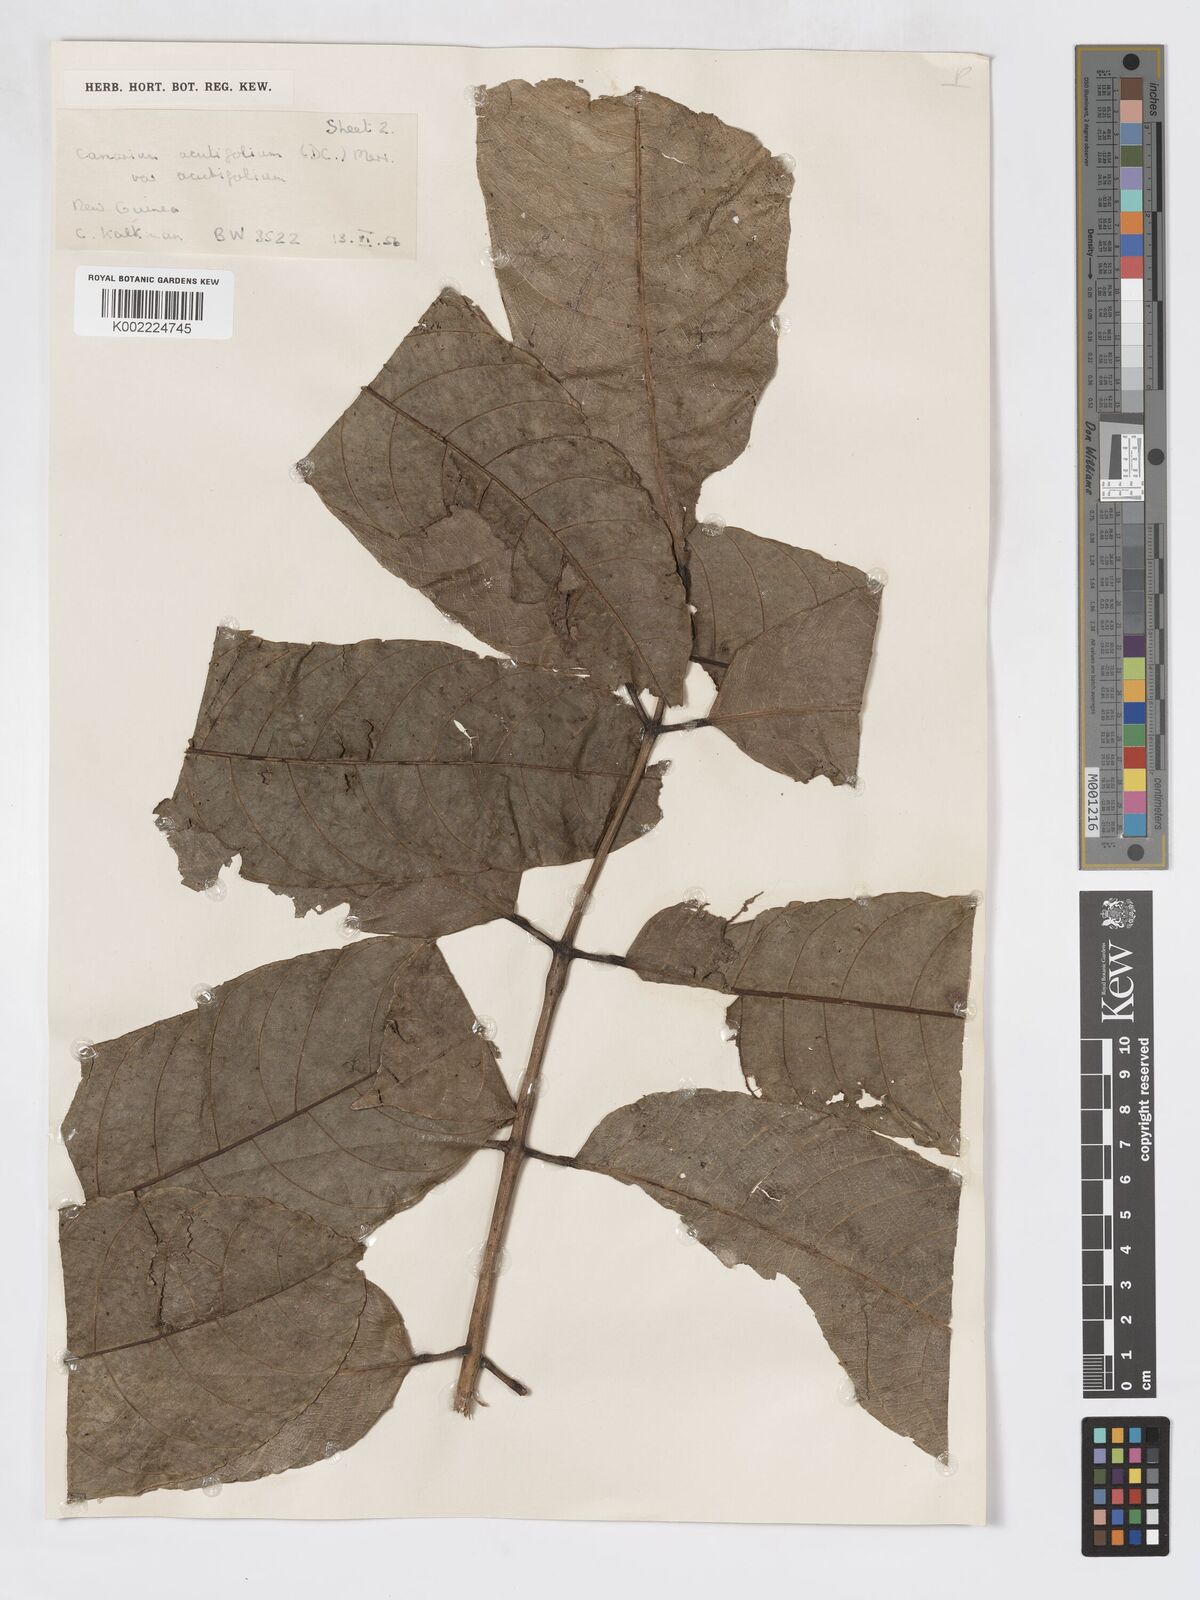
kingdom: Plantae
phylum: Tracheophyta
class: Magnoliopsida
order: Sapindales
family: Burseraceae
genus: Canarium
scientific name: Canarium acutifolium
